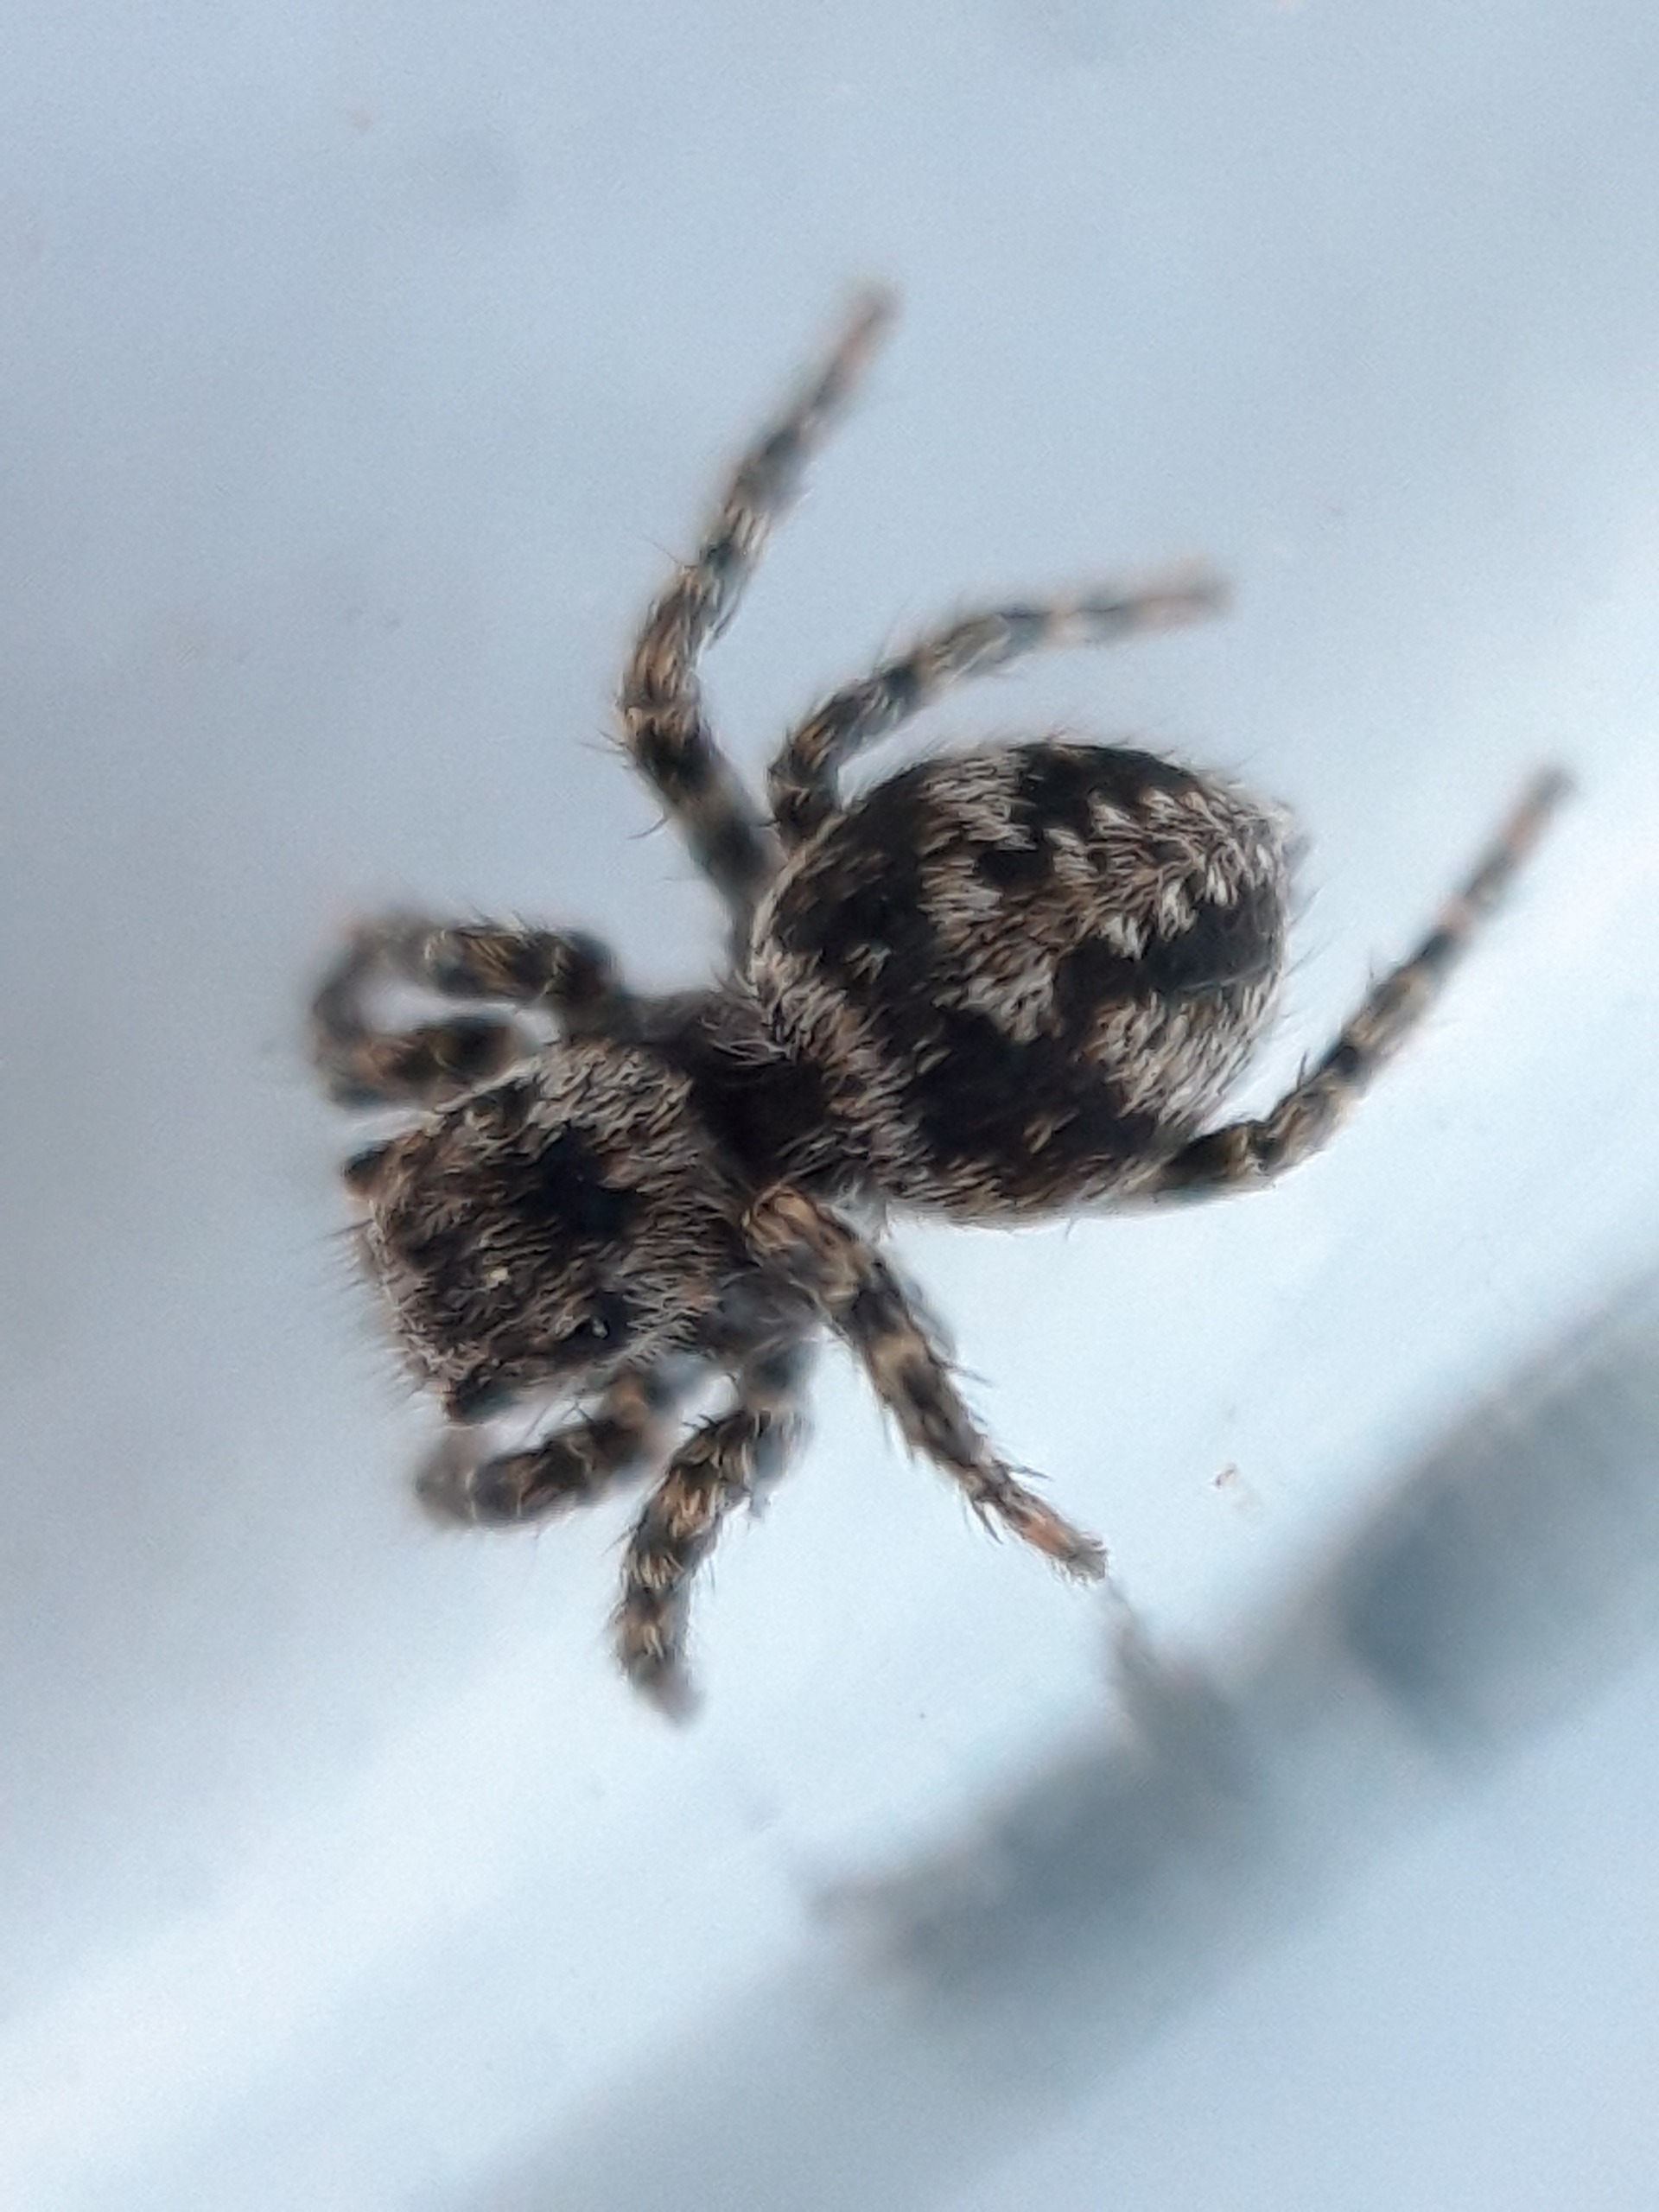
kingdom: Animalia
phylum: Arthropoda
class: Arachnida
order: Araneae
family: Salticidae
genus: Aelurillus
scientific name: Aelurillus v-insignitus
